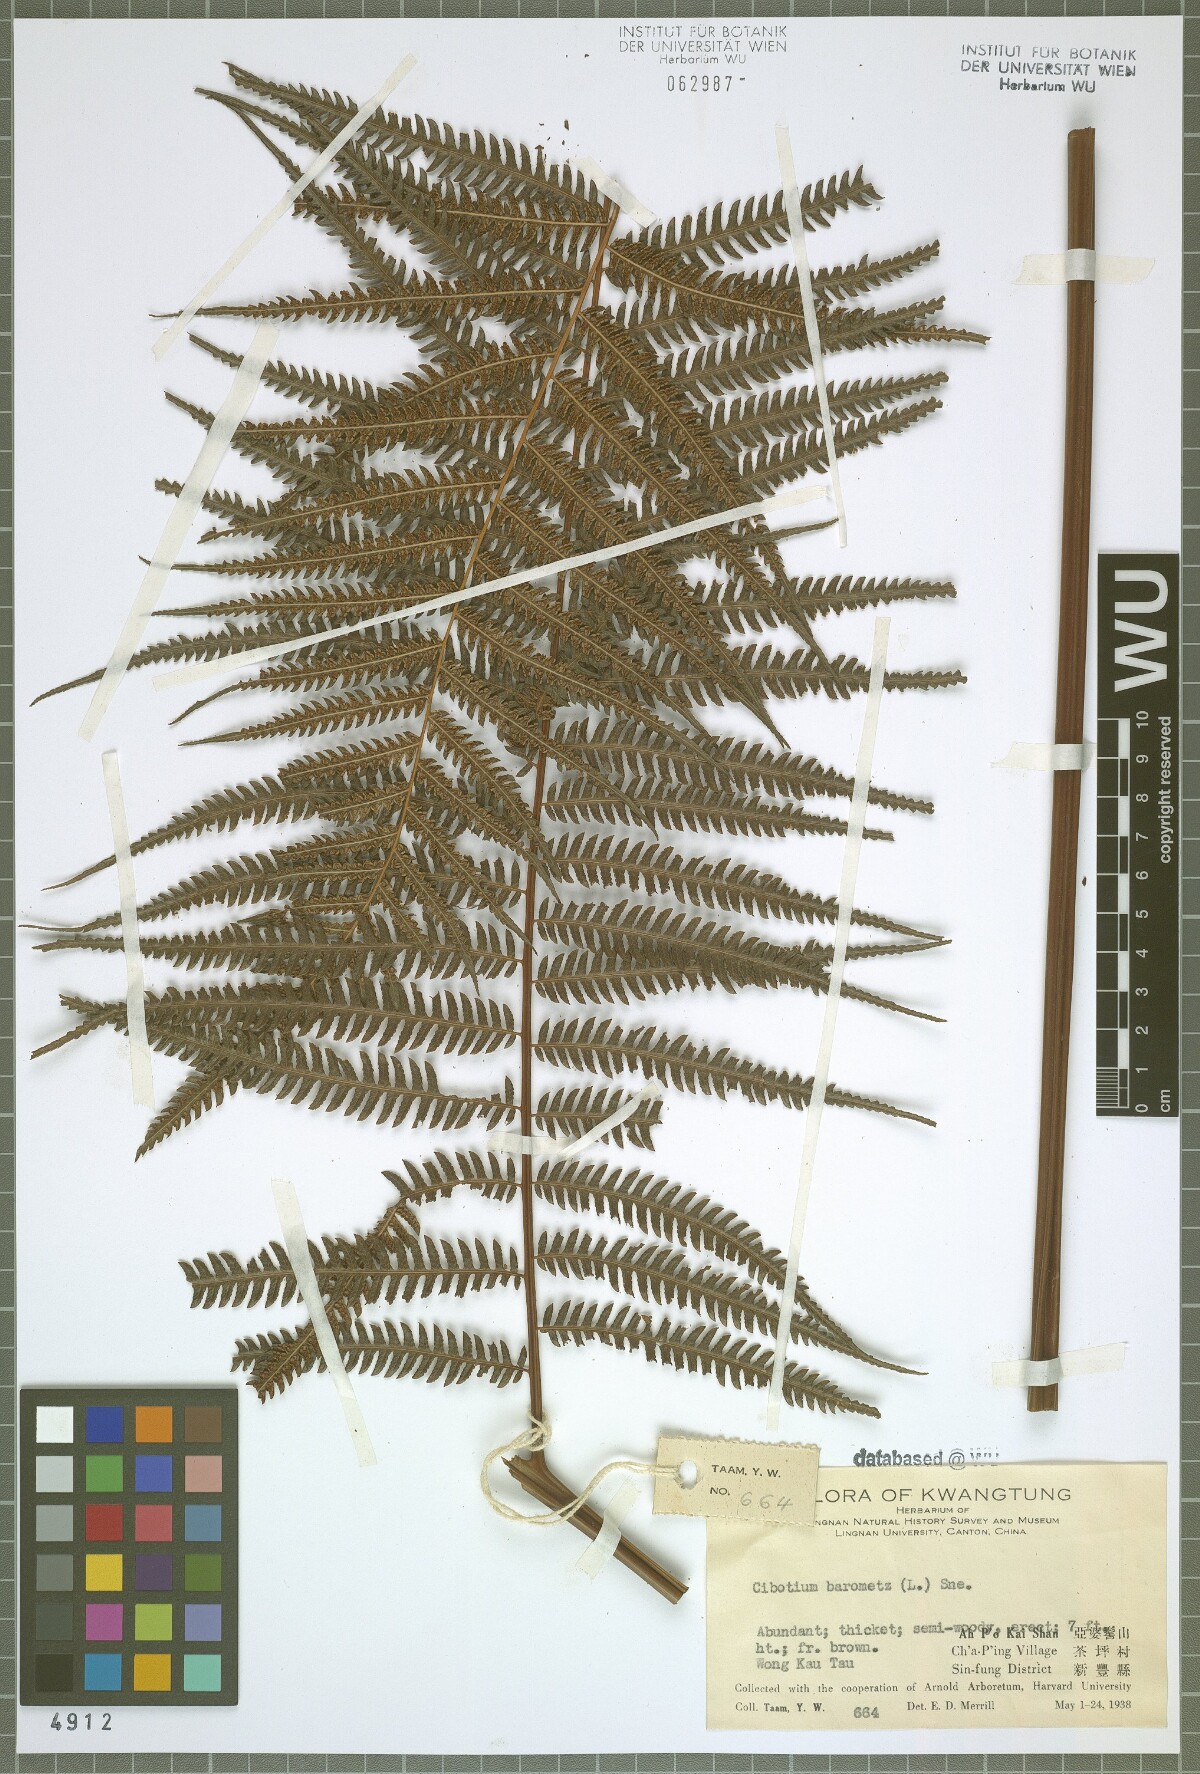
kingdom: Plantae
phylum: Tracheophyta
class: Polypodiopsida
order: Cyatheales
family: Cibotiaceae
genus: Cibotium
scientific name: Cibotium barometz
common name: Scythian-lamb
